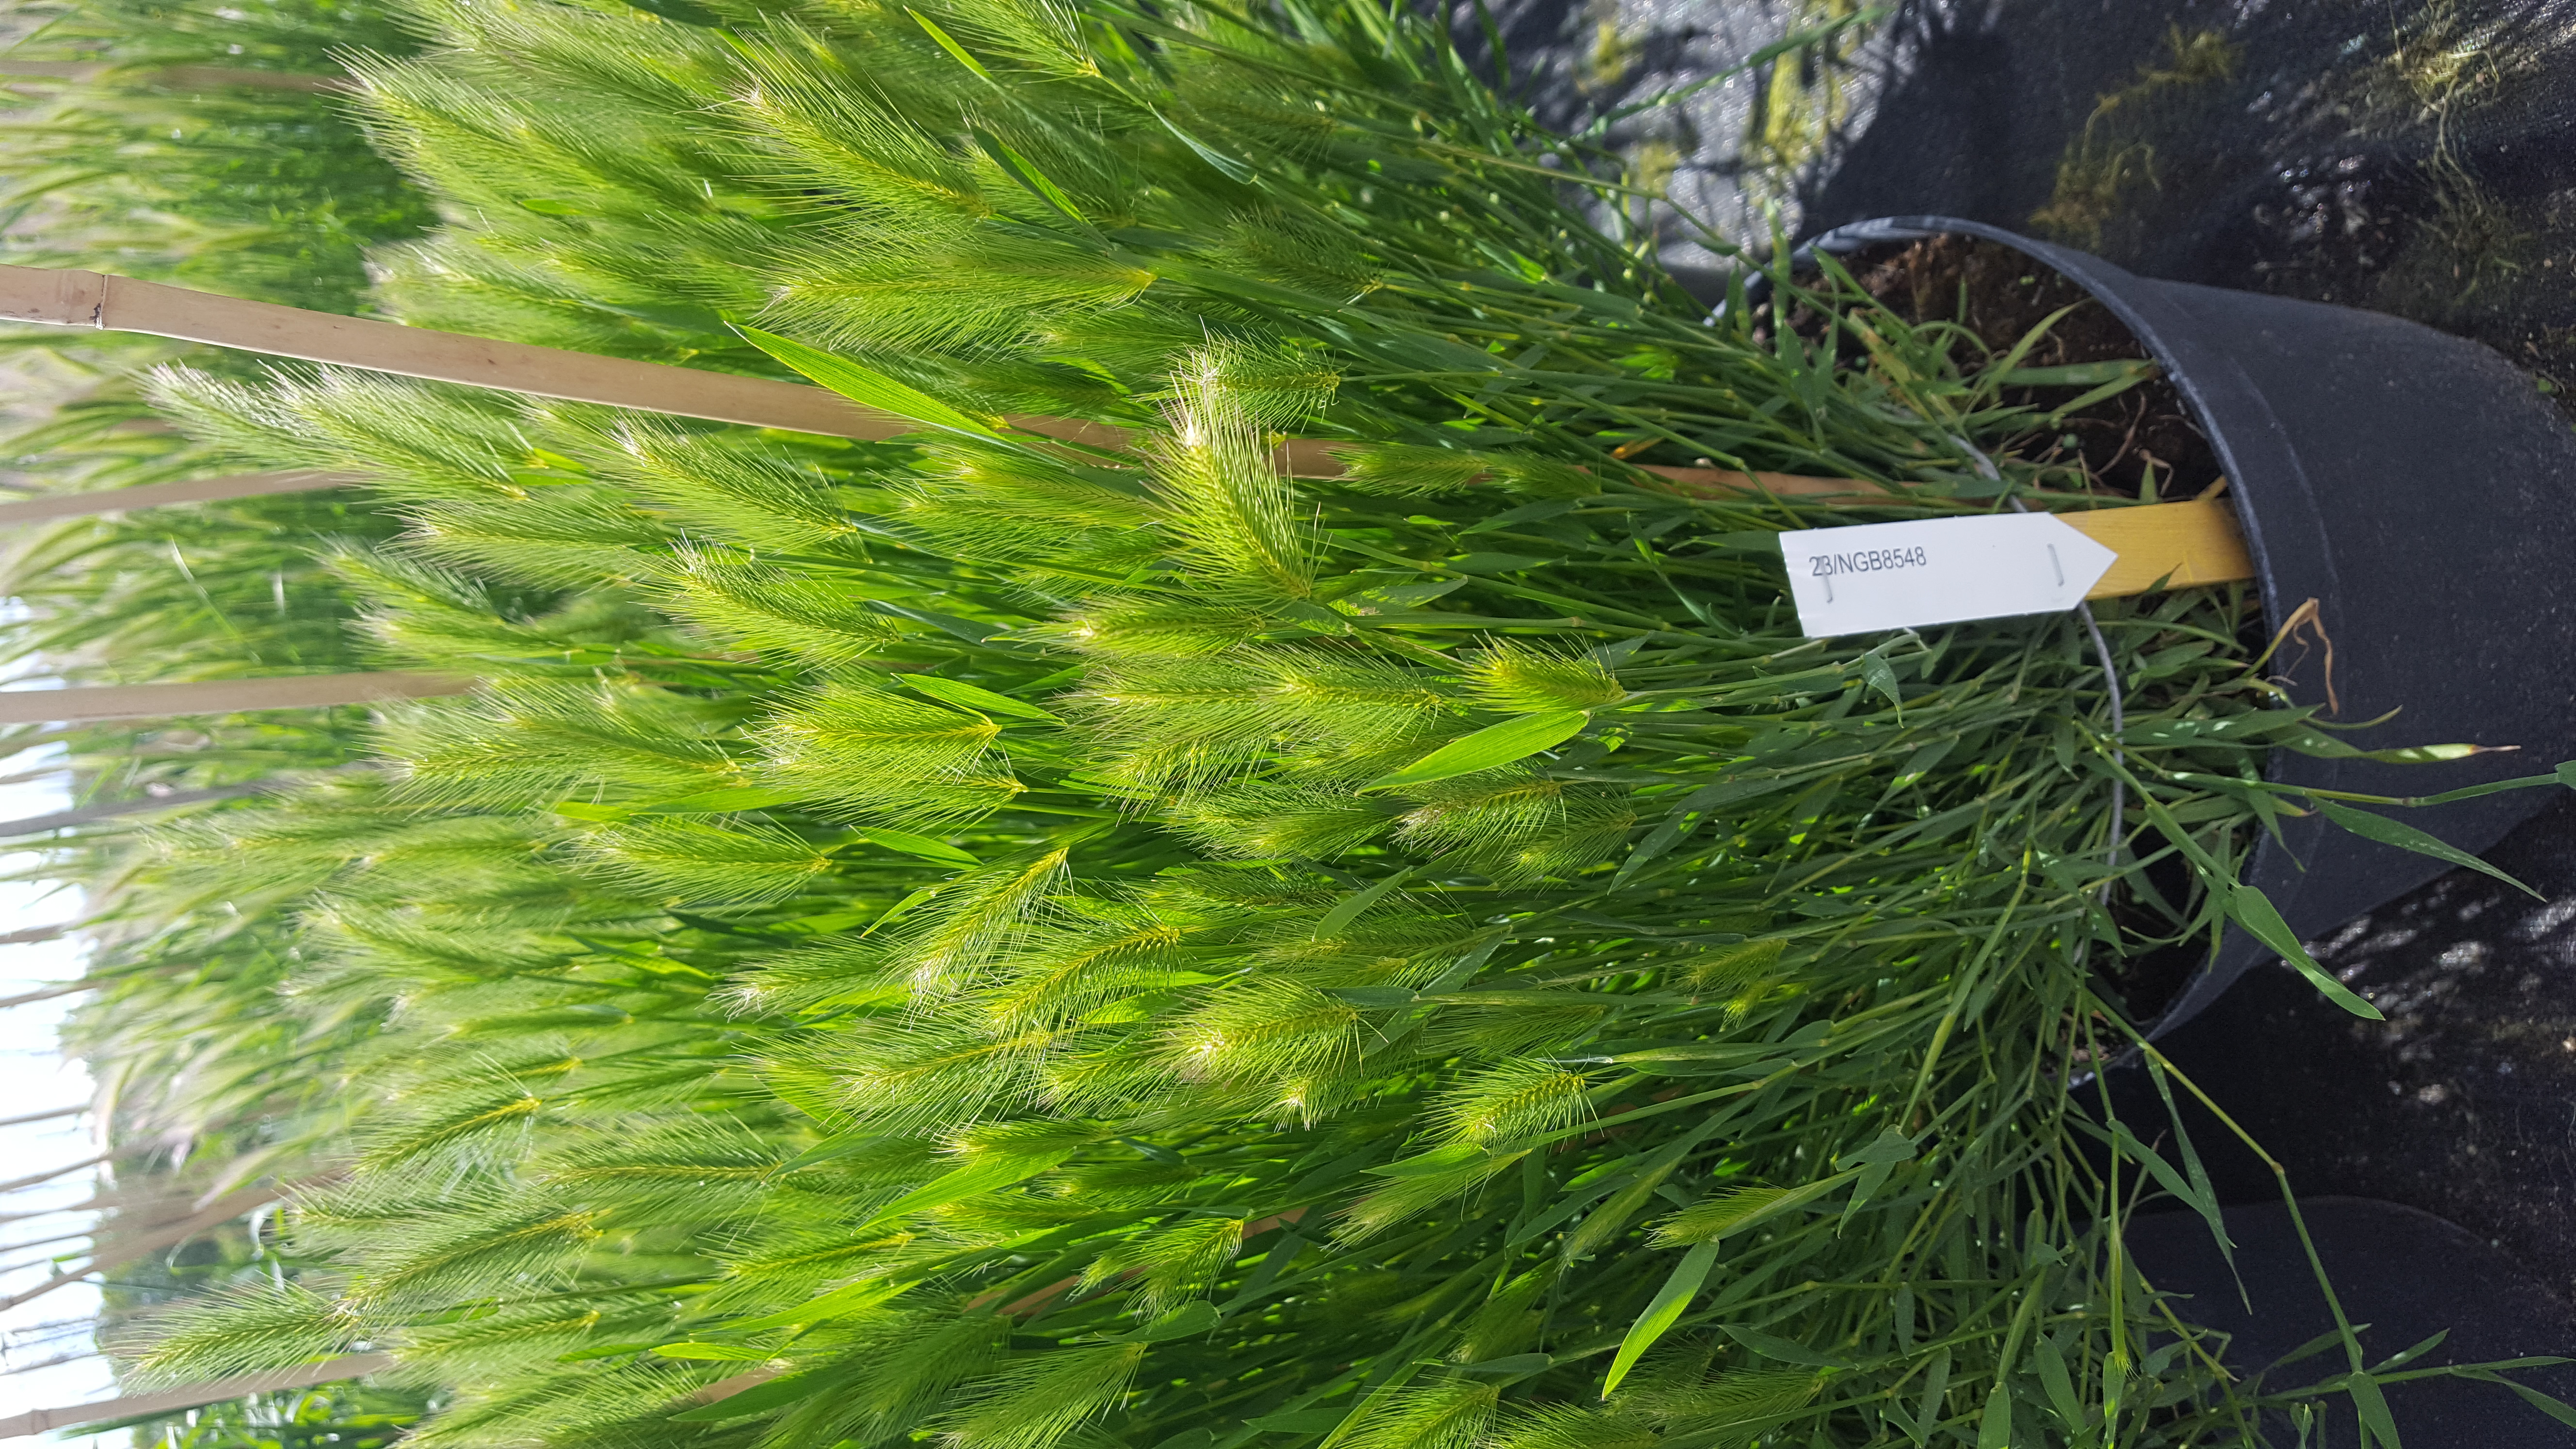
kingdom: Plantae
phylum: Tracheophyta
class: Liliopsida
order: Poales
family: Poaceae
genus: Hordeum
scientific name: Hordeum marinum
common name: Sea barley
